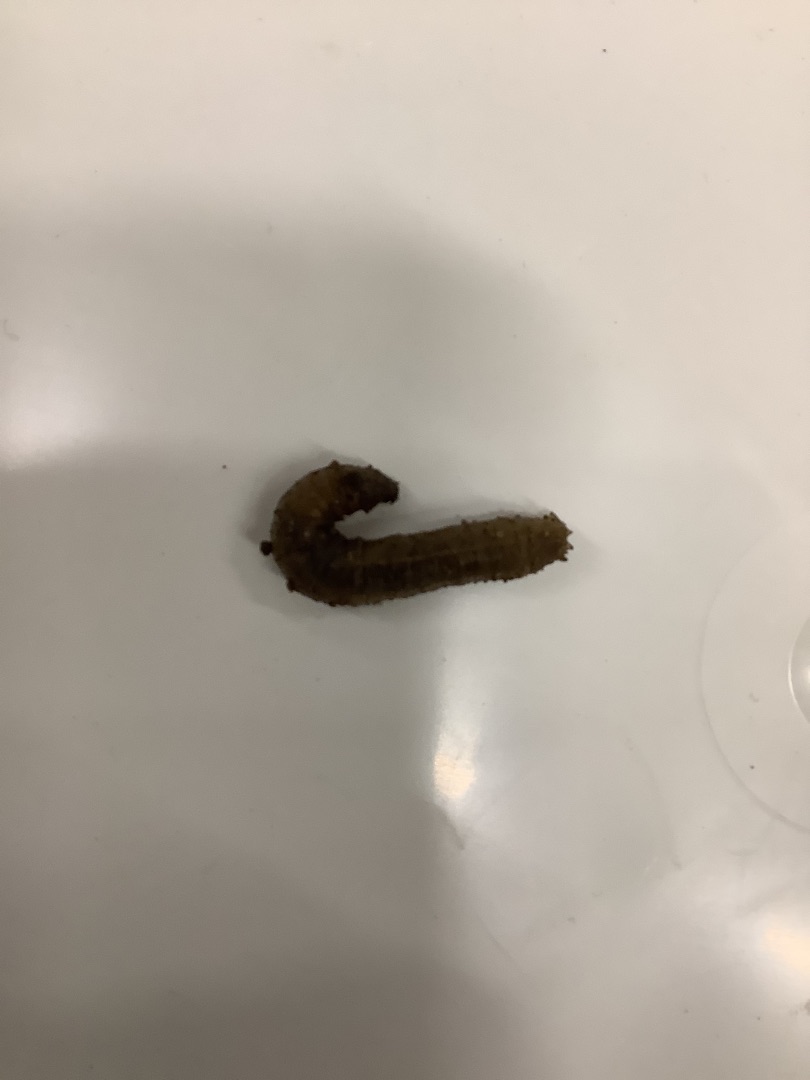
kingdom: Animalia
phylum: Arthropoda
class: Insecta
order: Diptera
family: Tipulidae
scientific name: Tipulidae
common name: Stankelben
